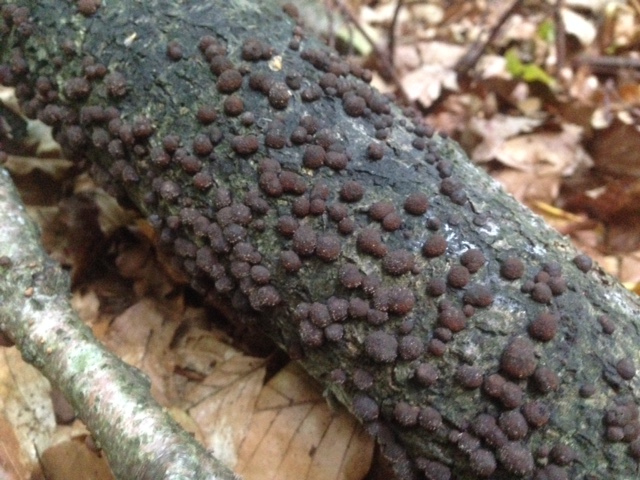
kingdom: Fungi
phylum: Ascomycota
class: Sordariomycetes
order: Xylariales
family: Hypoxylaceae
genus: Hypoxylon
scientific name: Hypoxylon fragiforme
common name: kuljordbær
